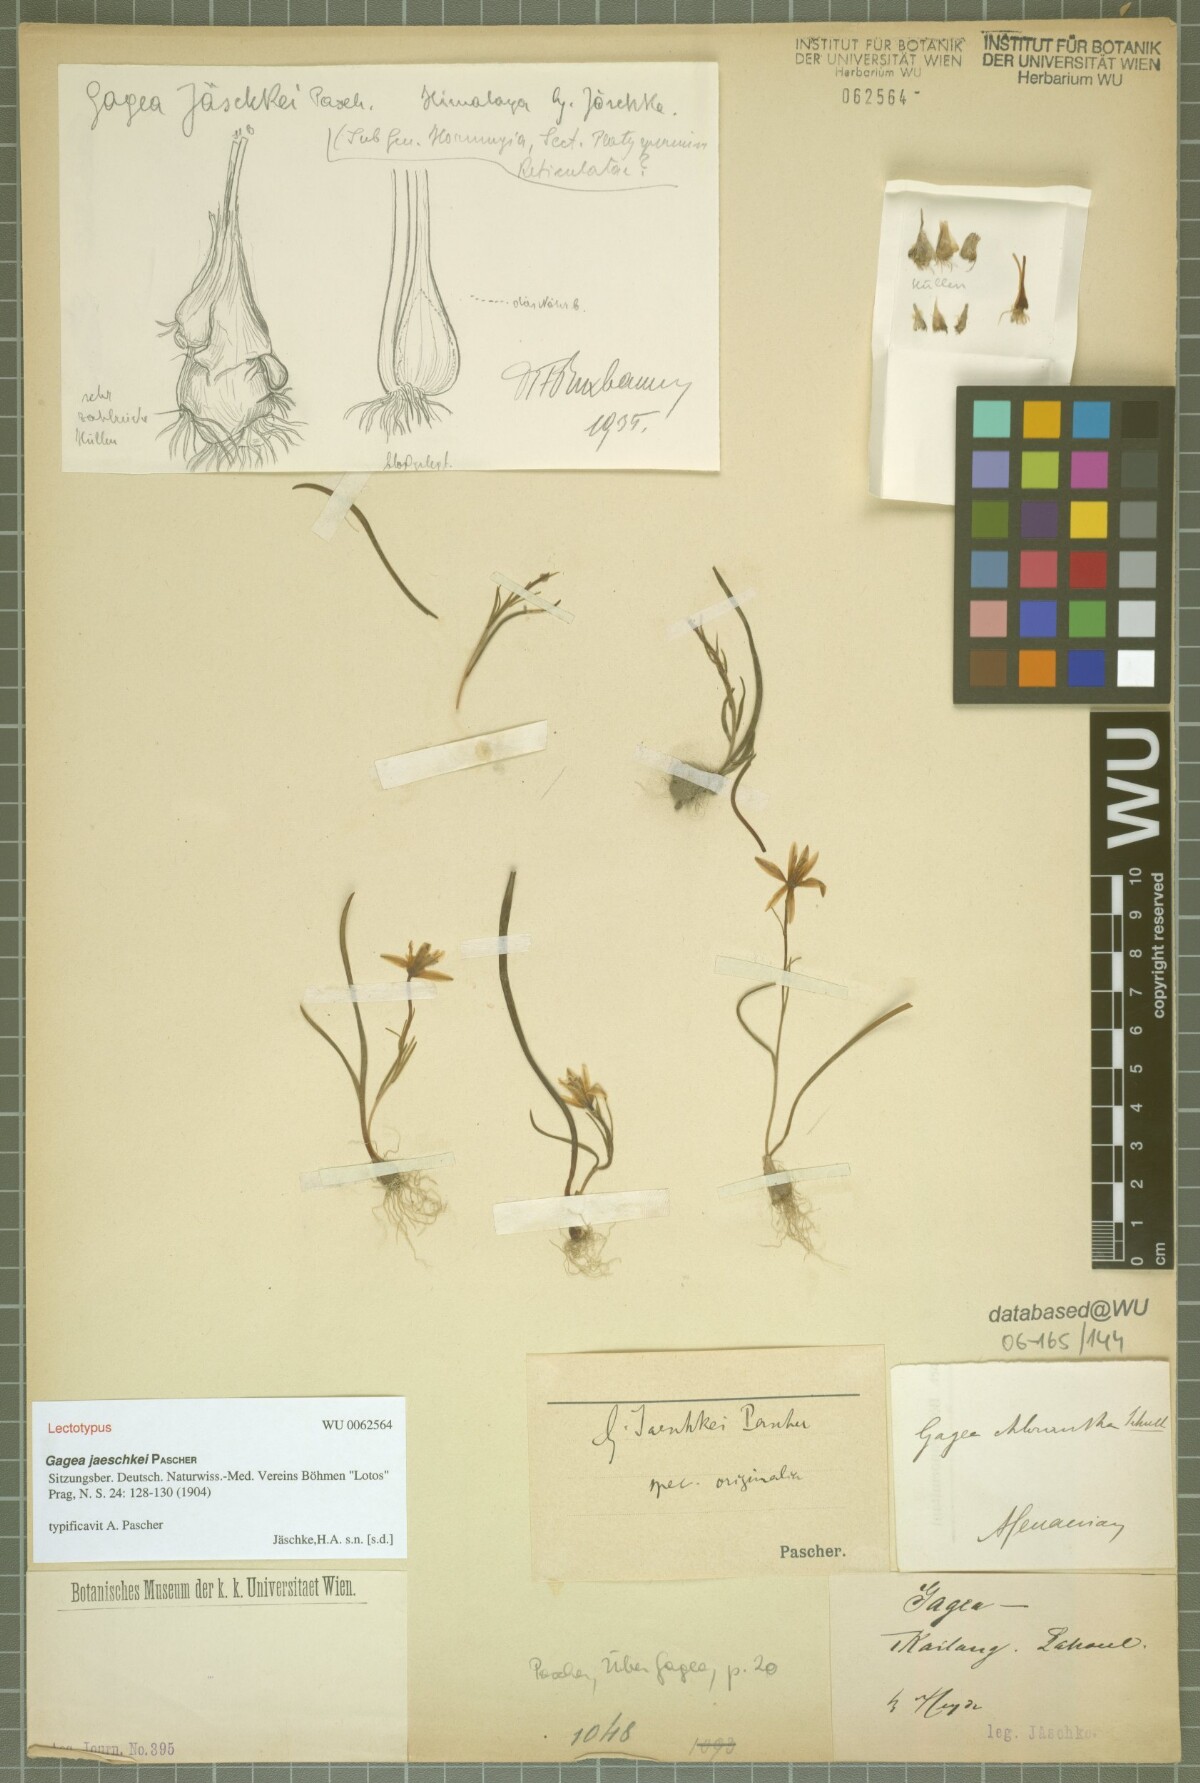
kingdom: Plantae
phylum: Tracheophyta
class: Liliopsida
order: Liliales
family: Liliaceae
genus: Gagea
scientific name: Gagea jaeschkei
